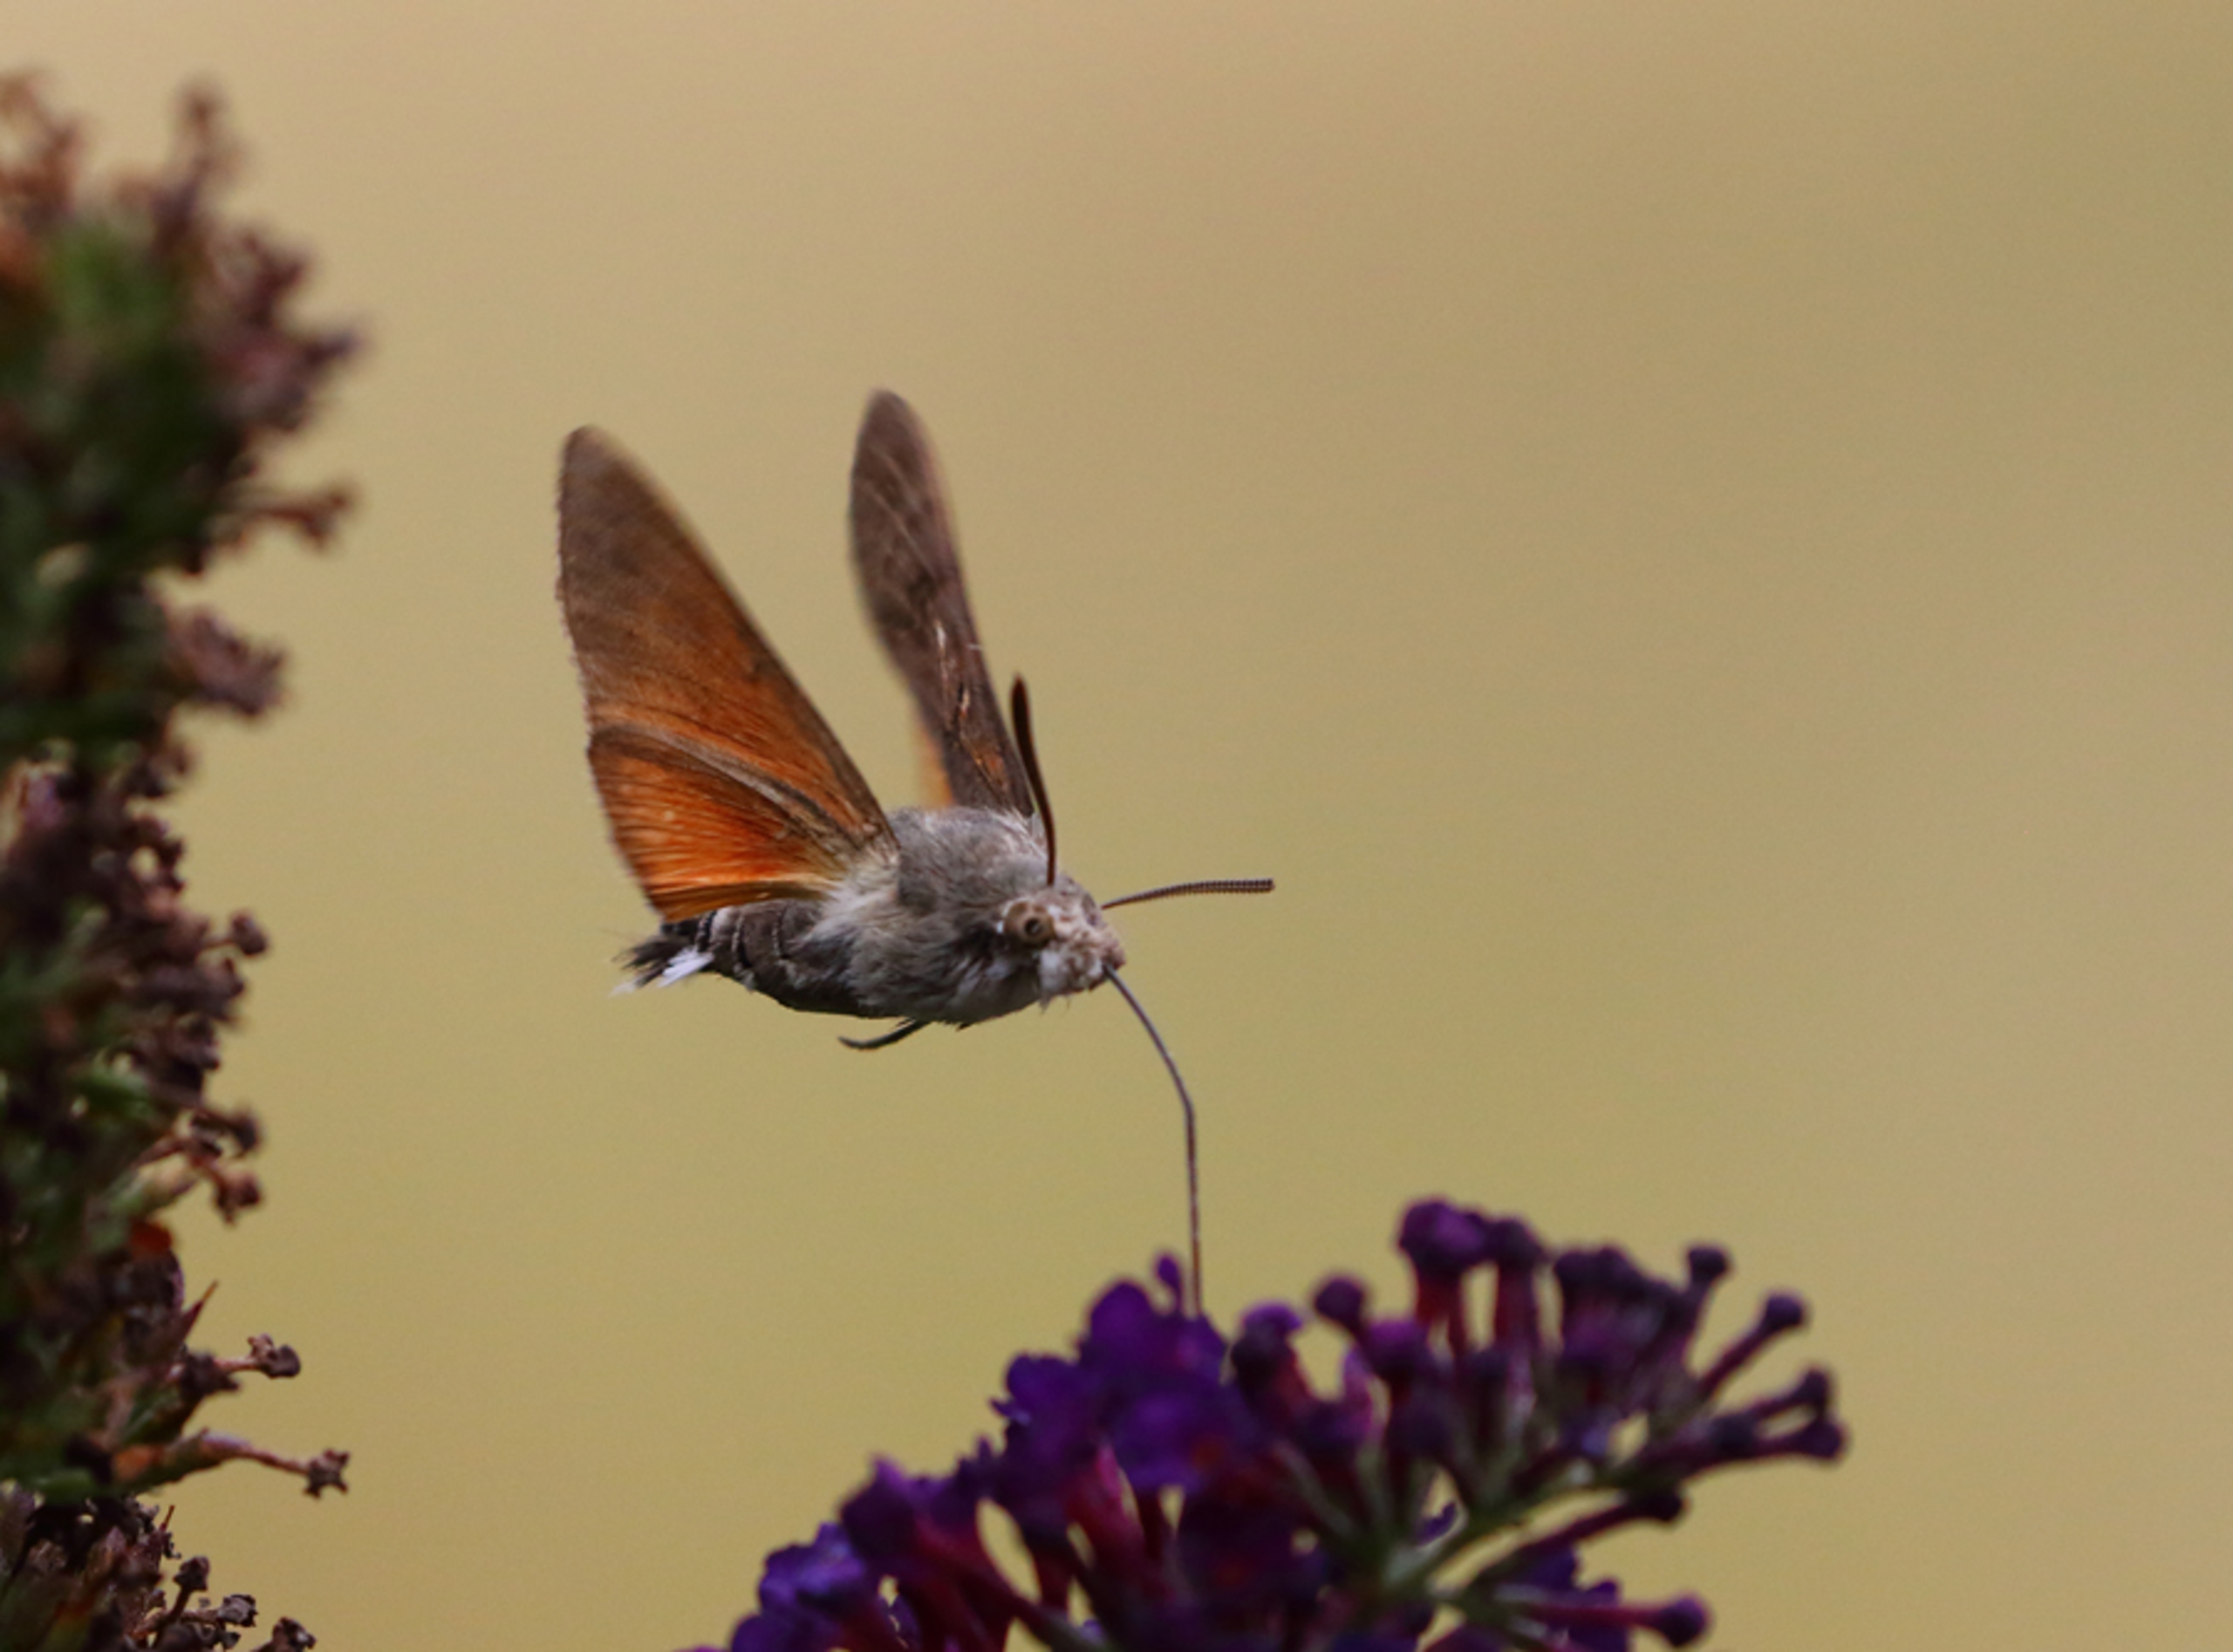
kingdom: Animalia
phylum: Arthropoda
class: Insecta
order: Lepidoptera
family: Sphingidae
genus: Macroglossum
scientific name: Macroglossum stellatarum
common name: Duehale
